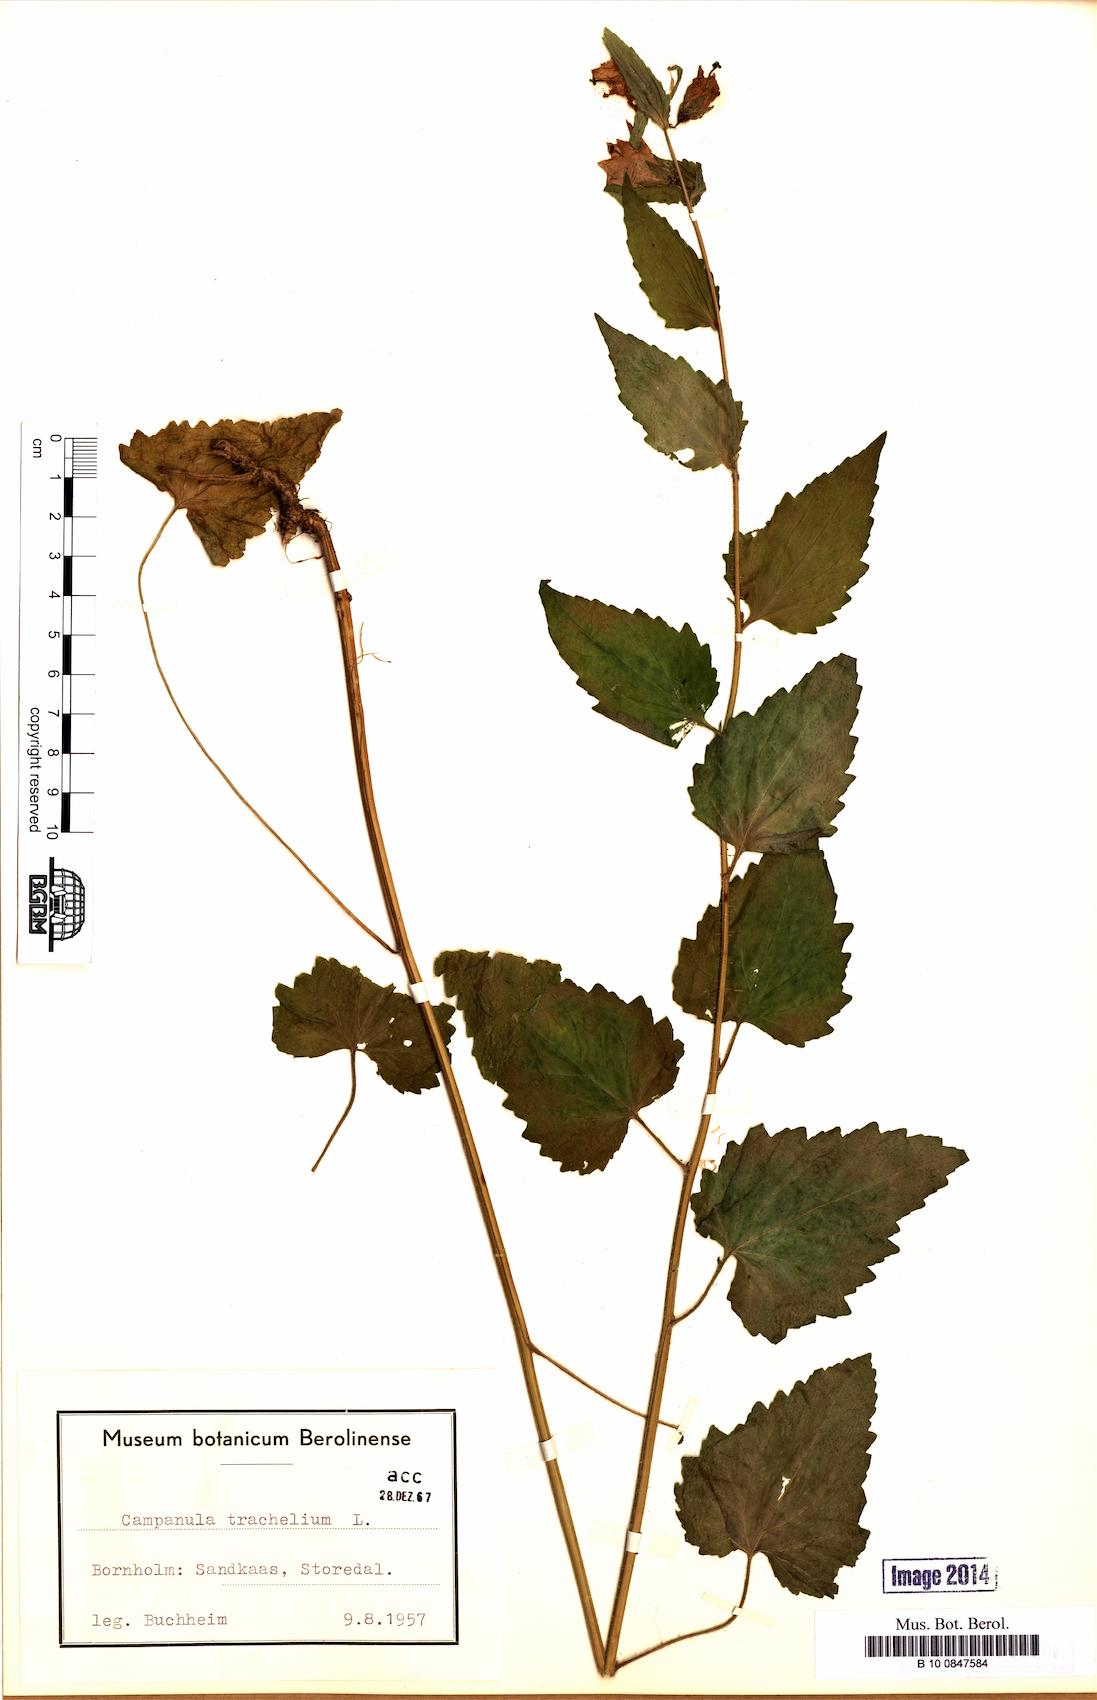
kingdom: Plantae
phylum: Tracheophyta
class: Magnoliopsida
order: Asterales
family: Campanulaceae
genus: Campanula
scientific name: Campanula trachelium
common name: Nettle-leaved bellflower
